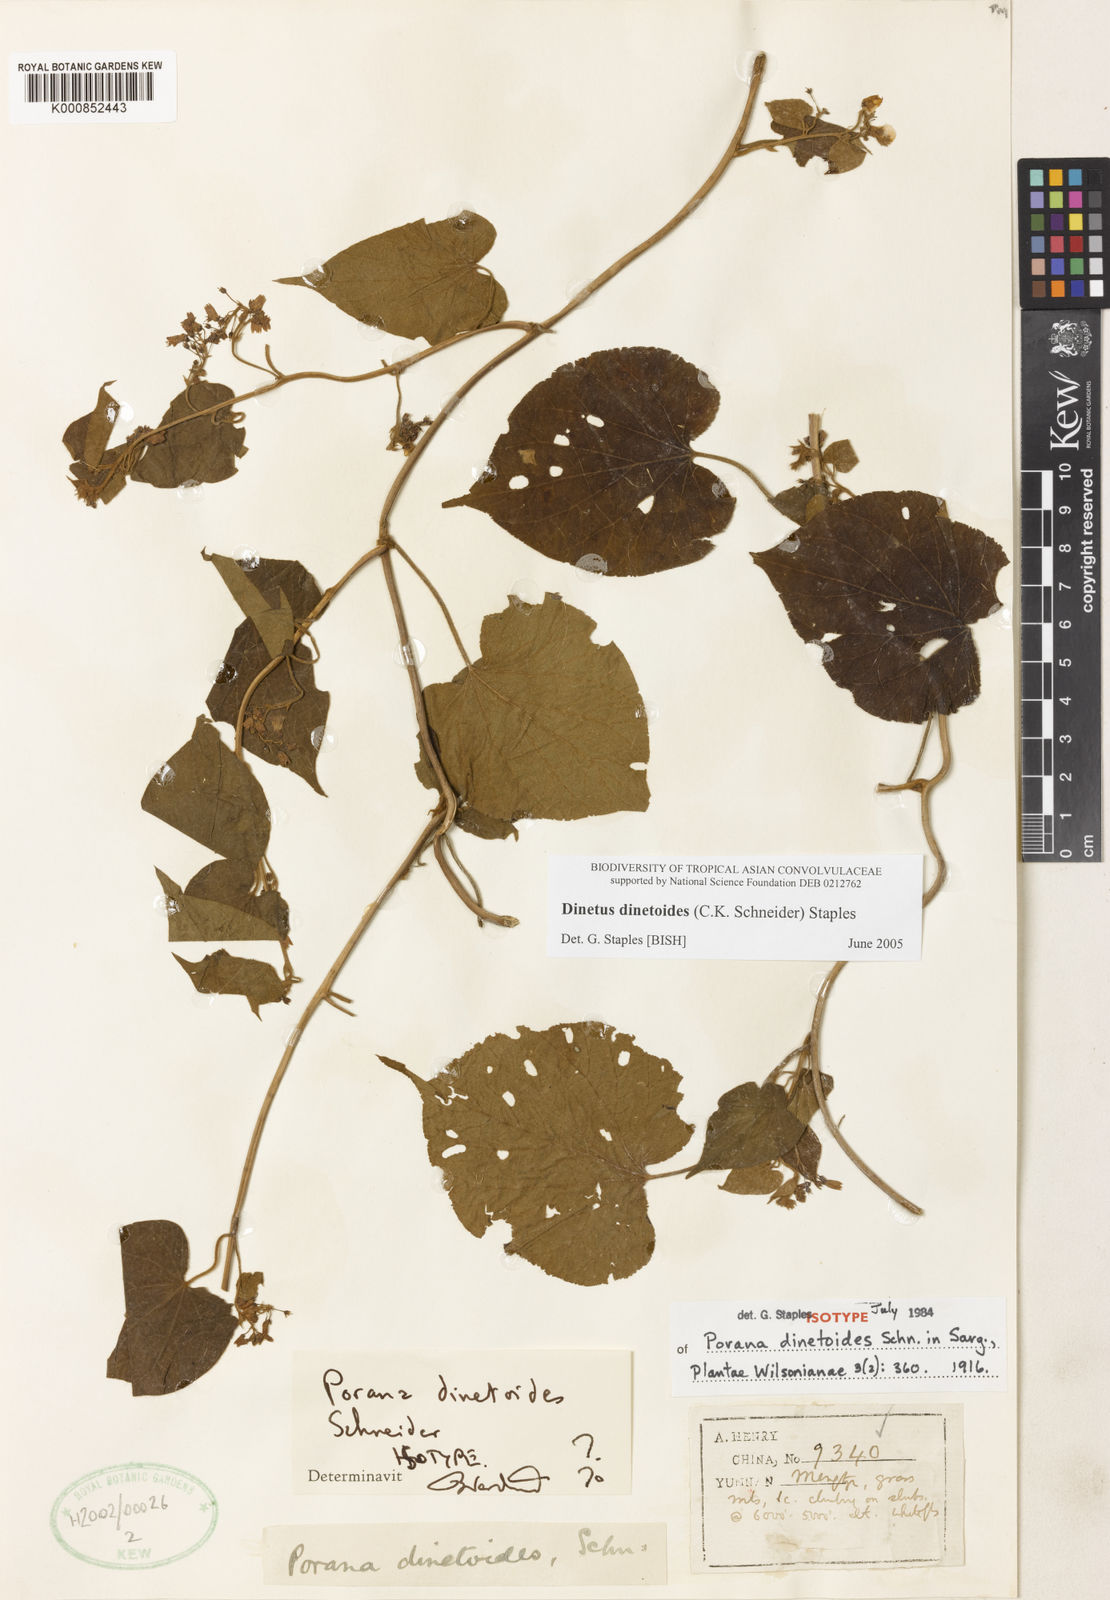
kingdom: Plantae
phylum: Tracheophyta
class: Magnoliopsida
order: Solanales
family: Convolvulaceae
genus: Dinetus
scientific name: Dinetus dinetoides
